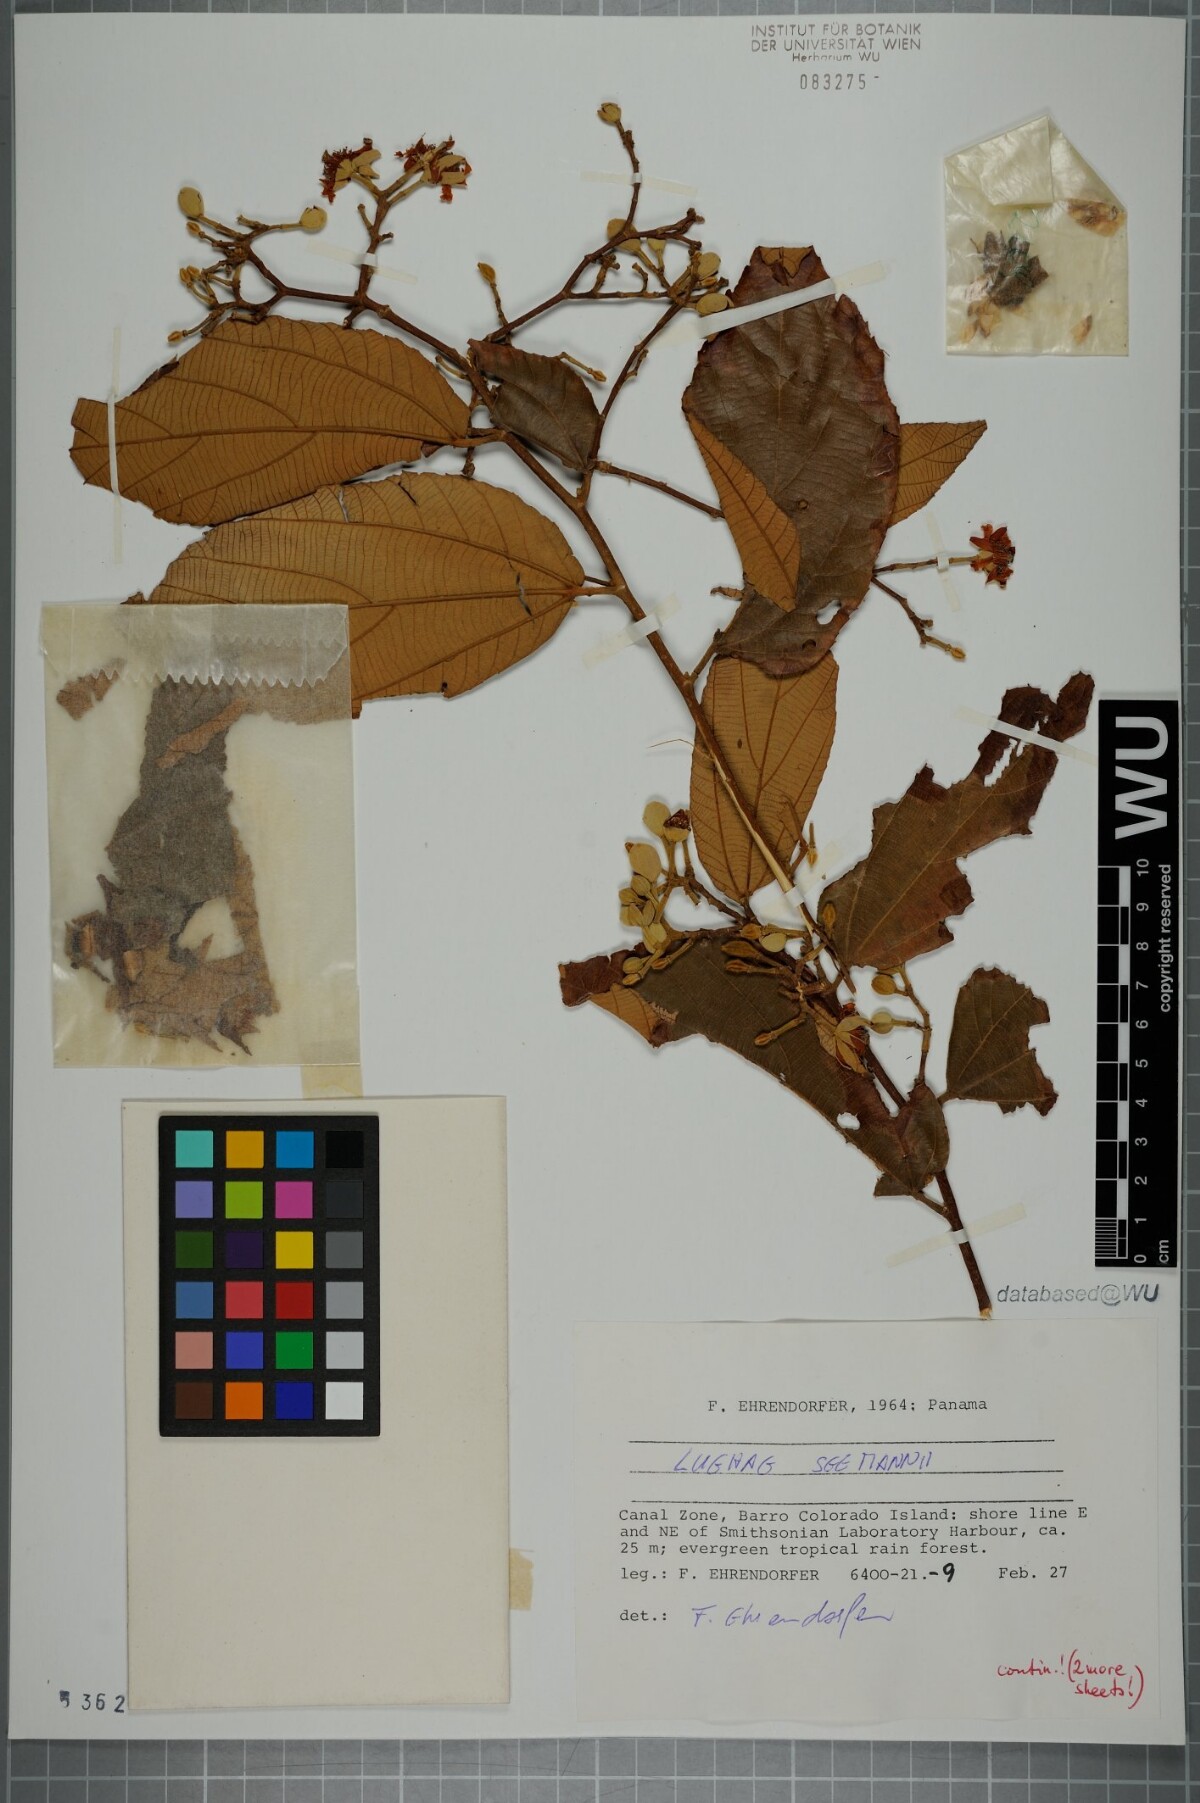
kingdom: Plantae
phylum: Tracheophyta
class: Magnoliopsida
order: Malvales
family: Malvaceae
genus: Luehea
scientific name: Luehea seemannii
